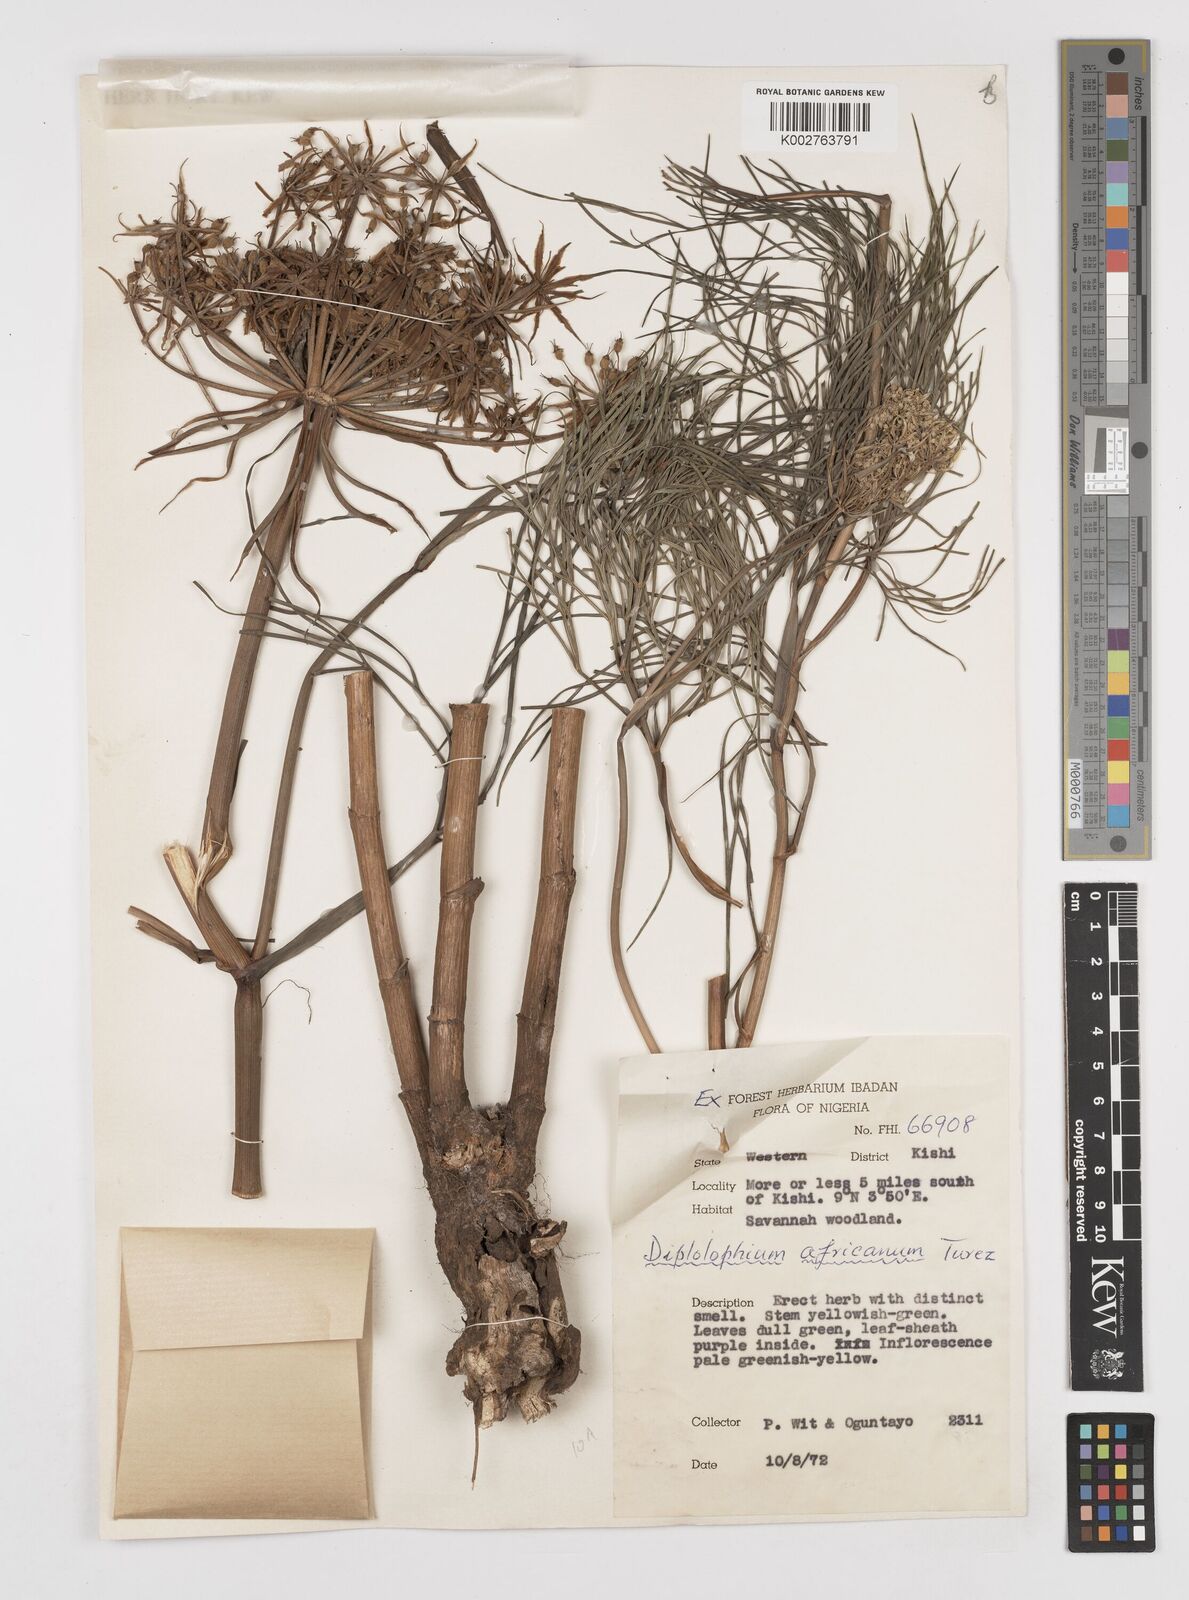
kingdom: Plantae
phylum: Tracheophyta
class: Magnoliopsida
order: Apiales
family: Apiaceae
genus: Diplolophium
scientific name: Diplolophium africanum
